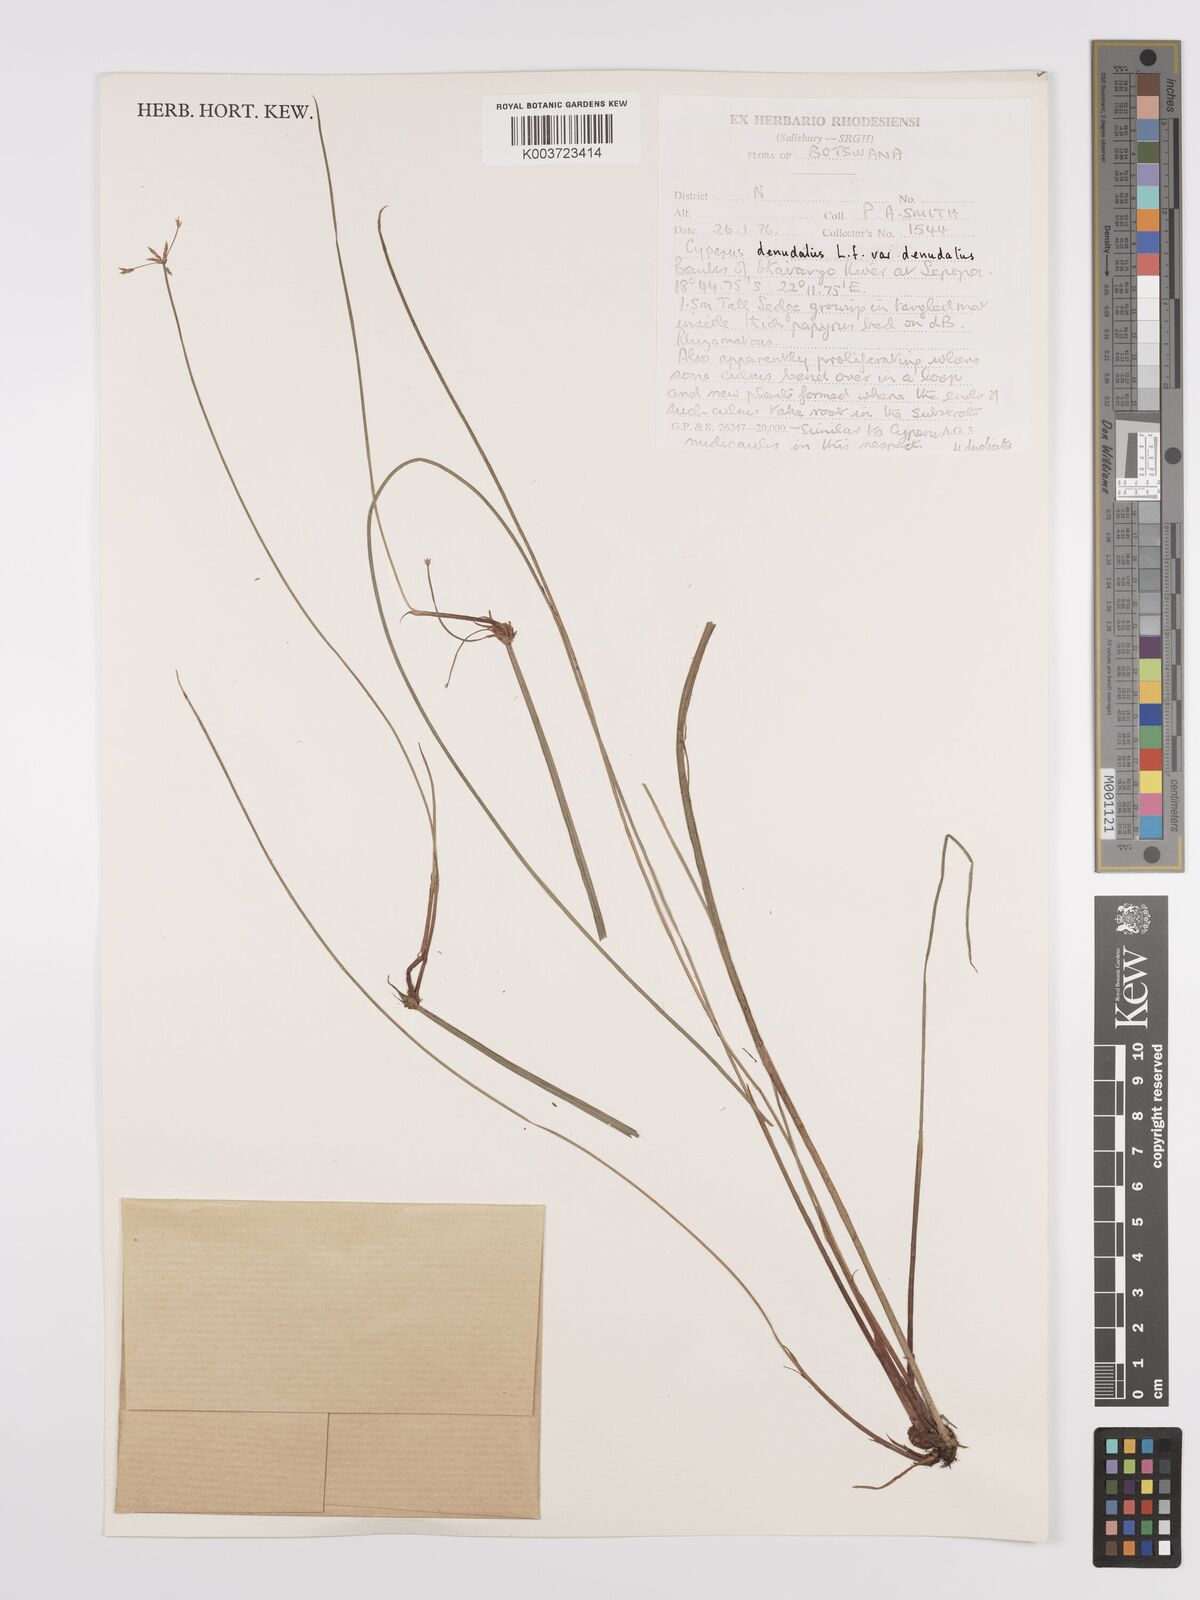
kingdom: Plantae
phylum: Tracheophyta
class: Liliopsida
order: Poales
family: Cyperaceae
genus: Cyperus
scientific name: Cyperus denudatus
